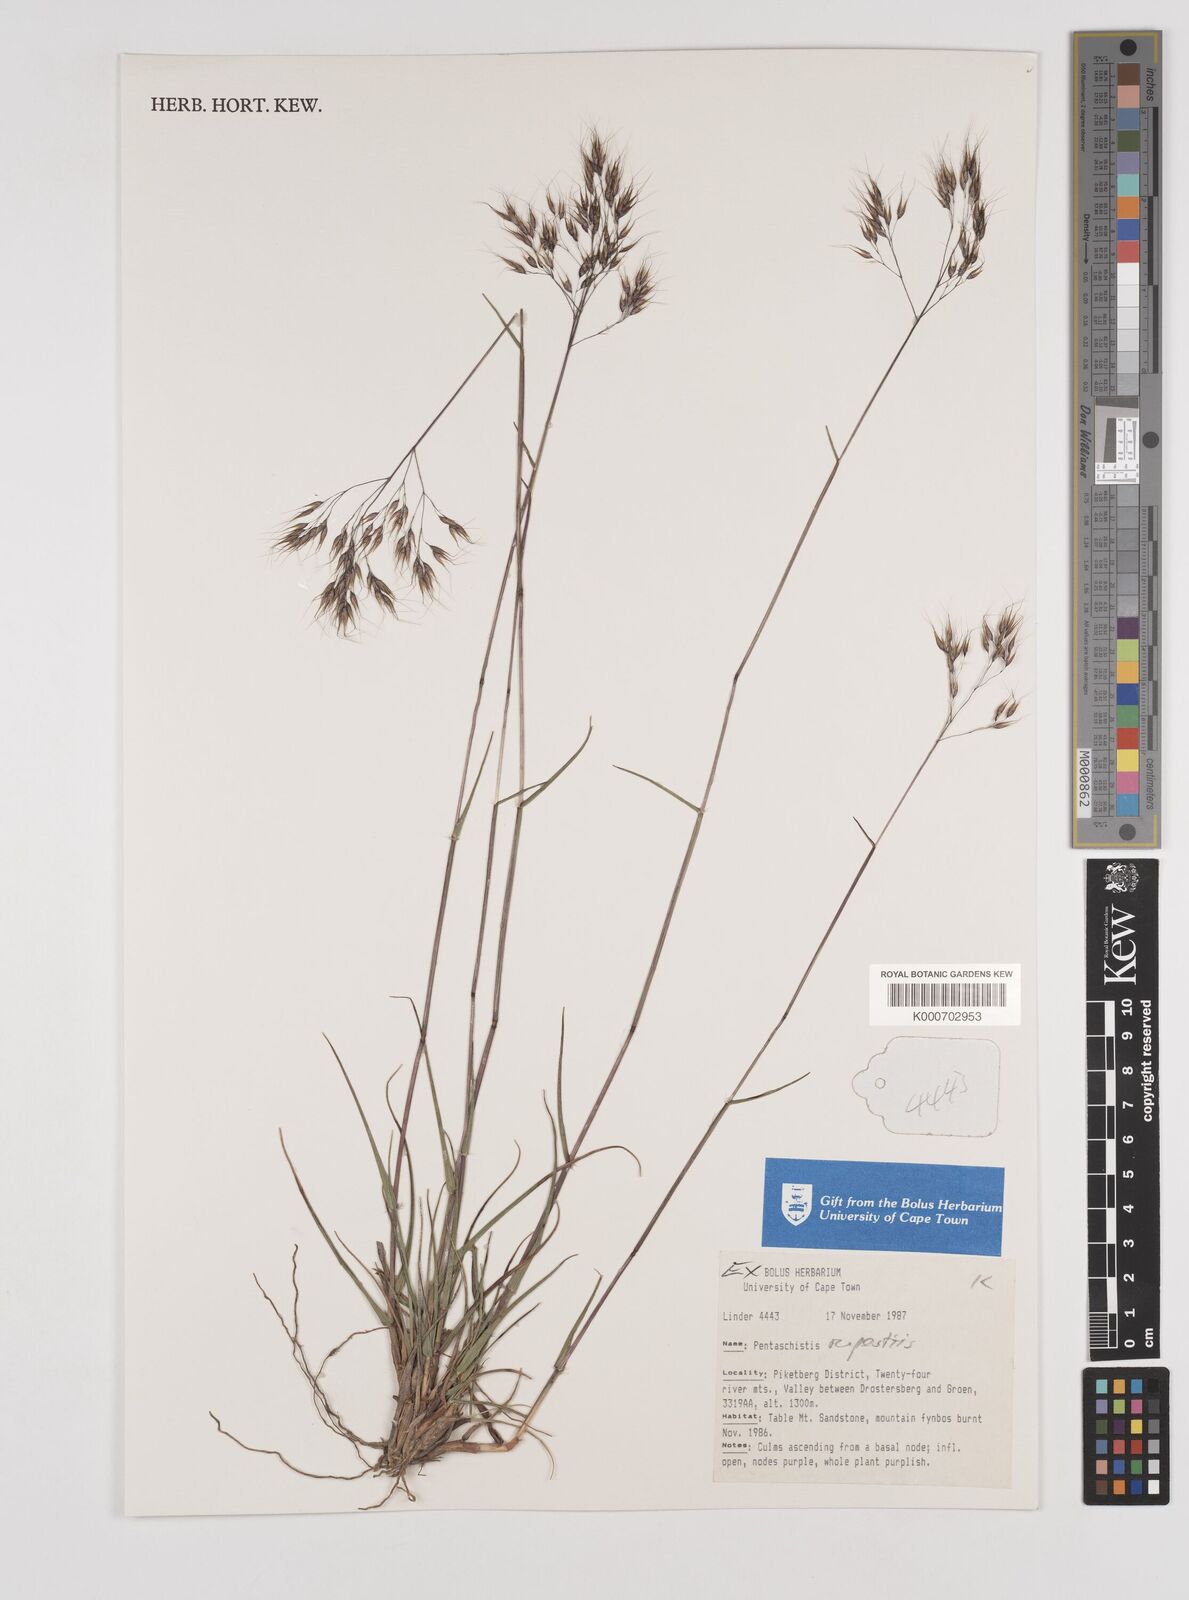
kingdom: Plantae
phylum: Tracheophyta
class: Liliopsida
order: Poales
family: Poaceae
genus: Pentameris
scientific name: Pentameris rupestris
